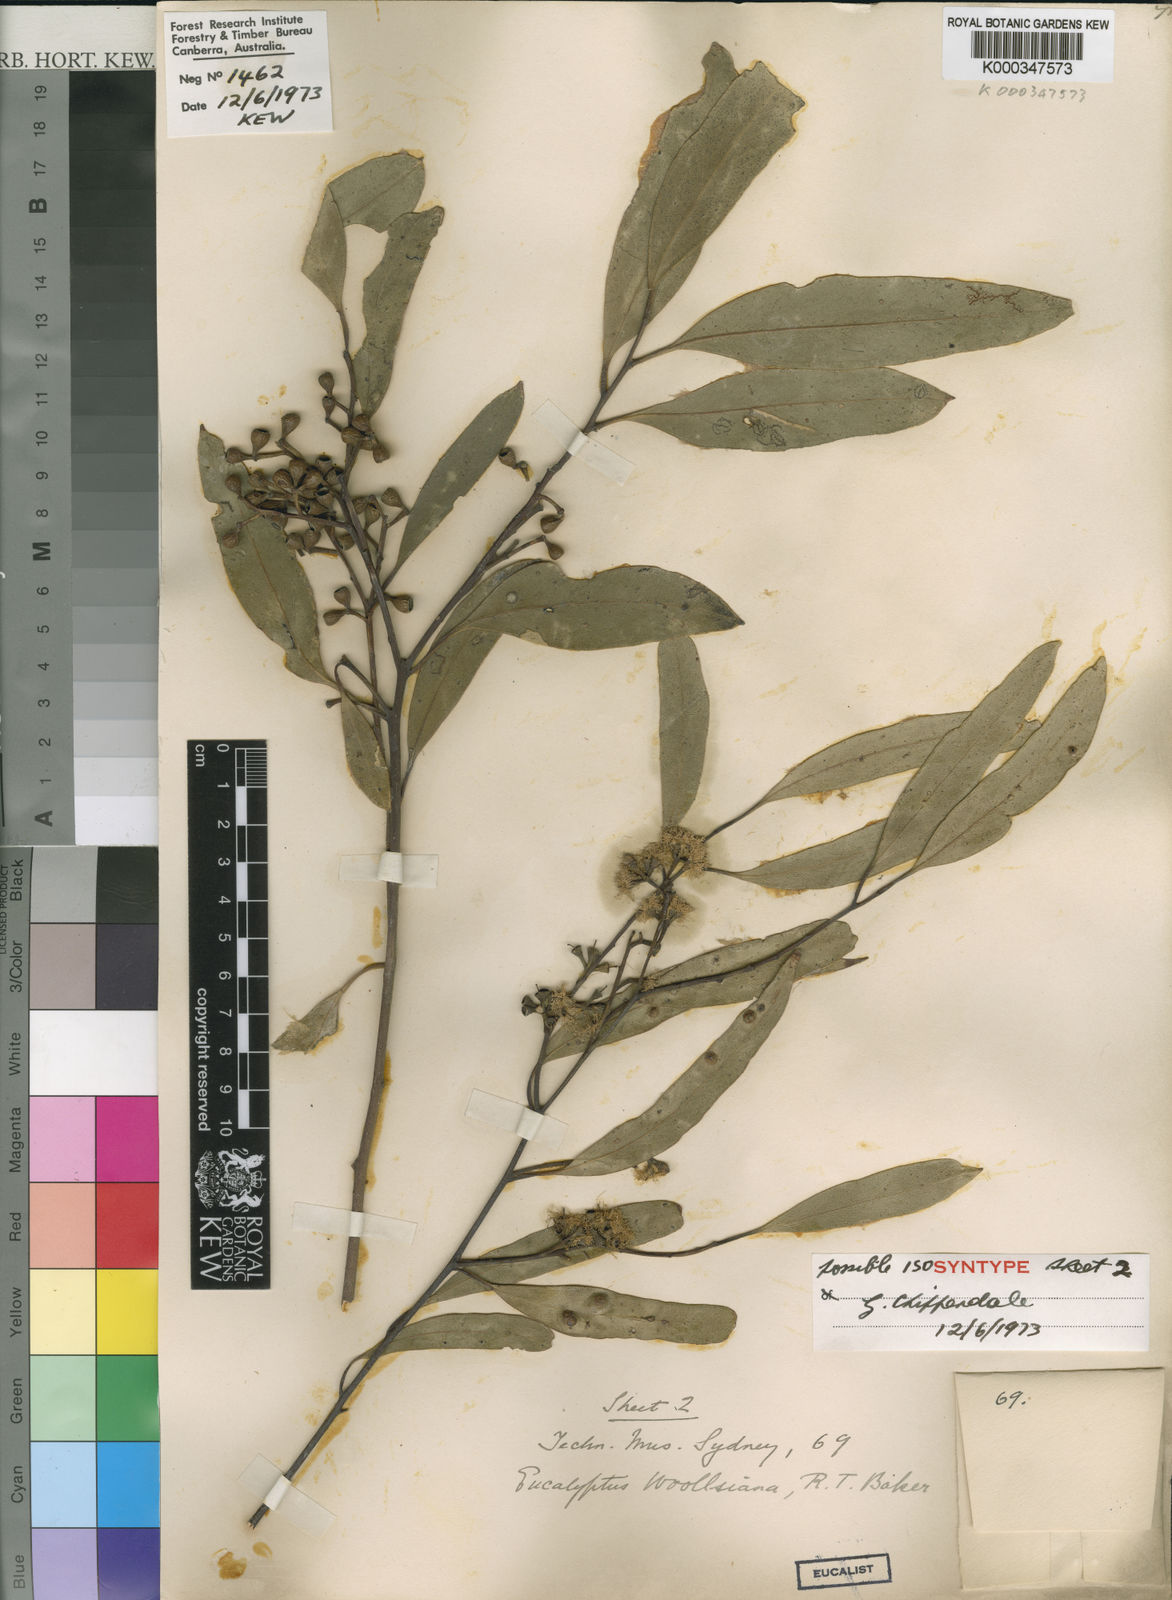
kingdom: Plantae
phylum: Tracheophyta
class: Magnoliopsida
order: Myrtales
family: Myrtaceae
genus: Eucalyptus
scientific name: Eucalyptus woollsiana
